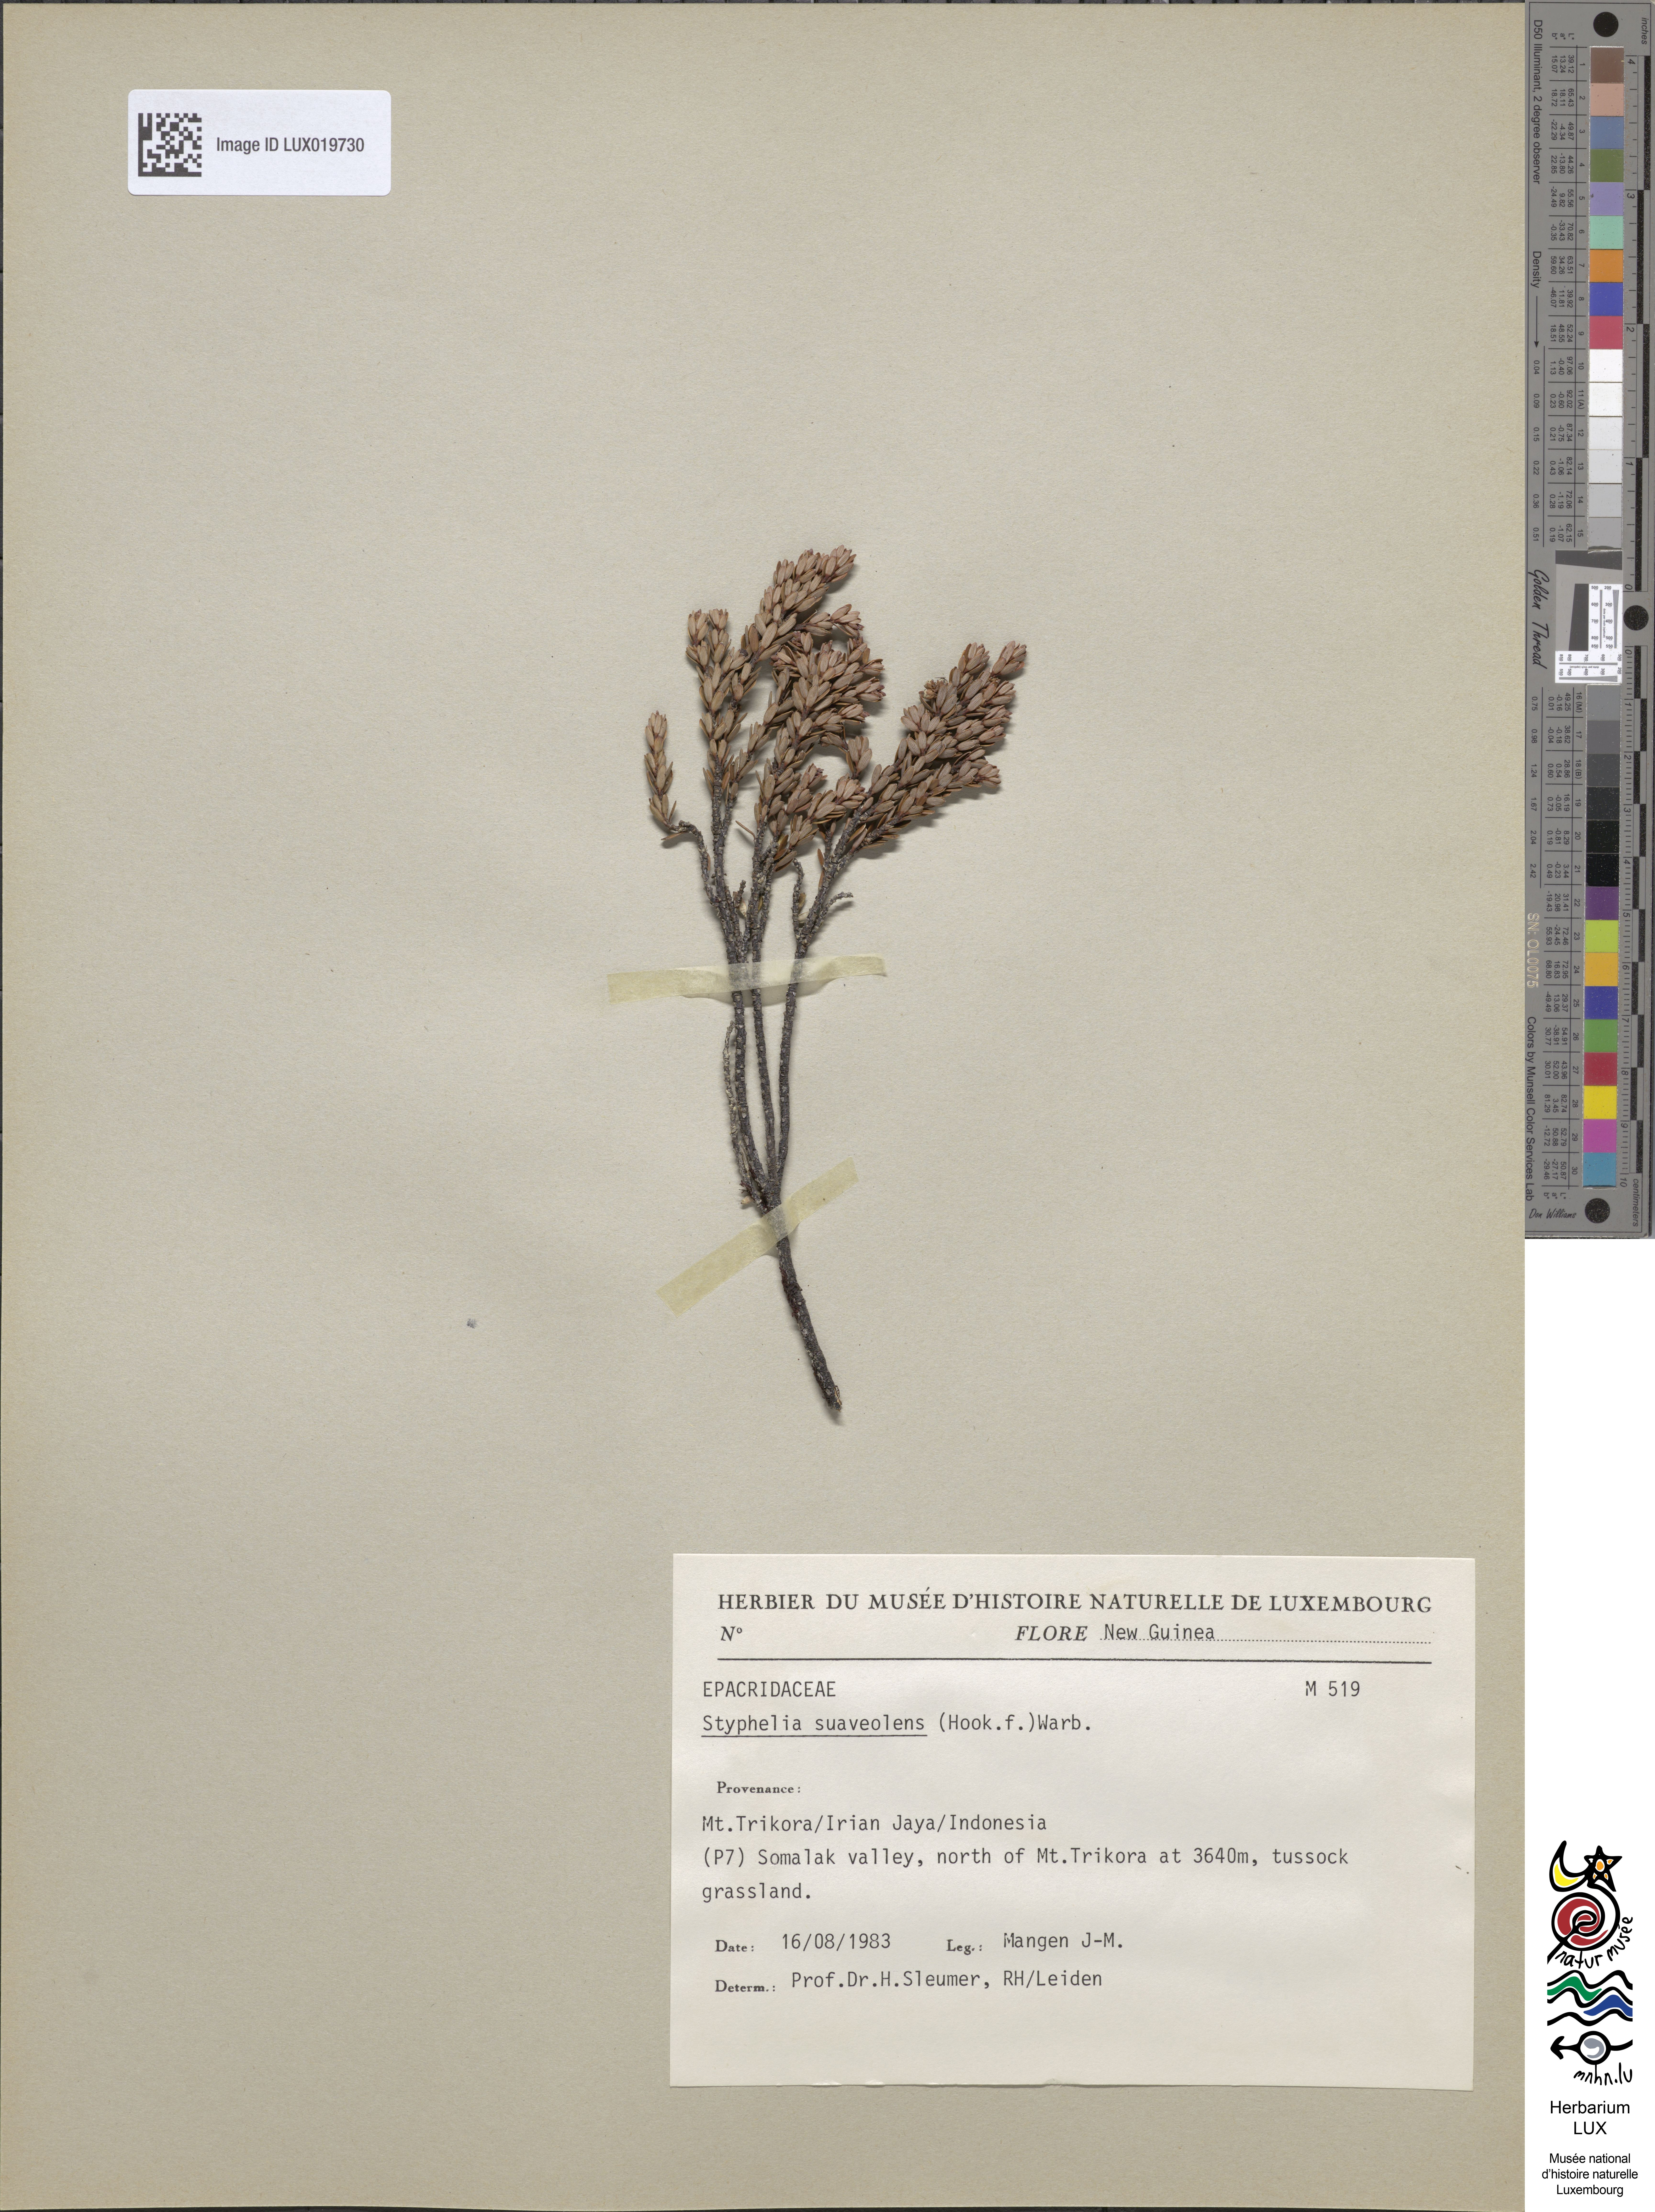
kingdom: Plantae
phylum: Tracheophyta
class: Magnoliopsida
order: Ericales
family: Ericaceae
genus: Acrothamnus
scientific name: Acrothamnus suaveolens
